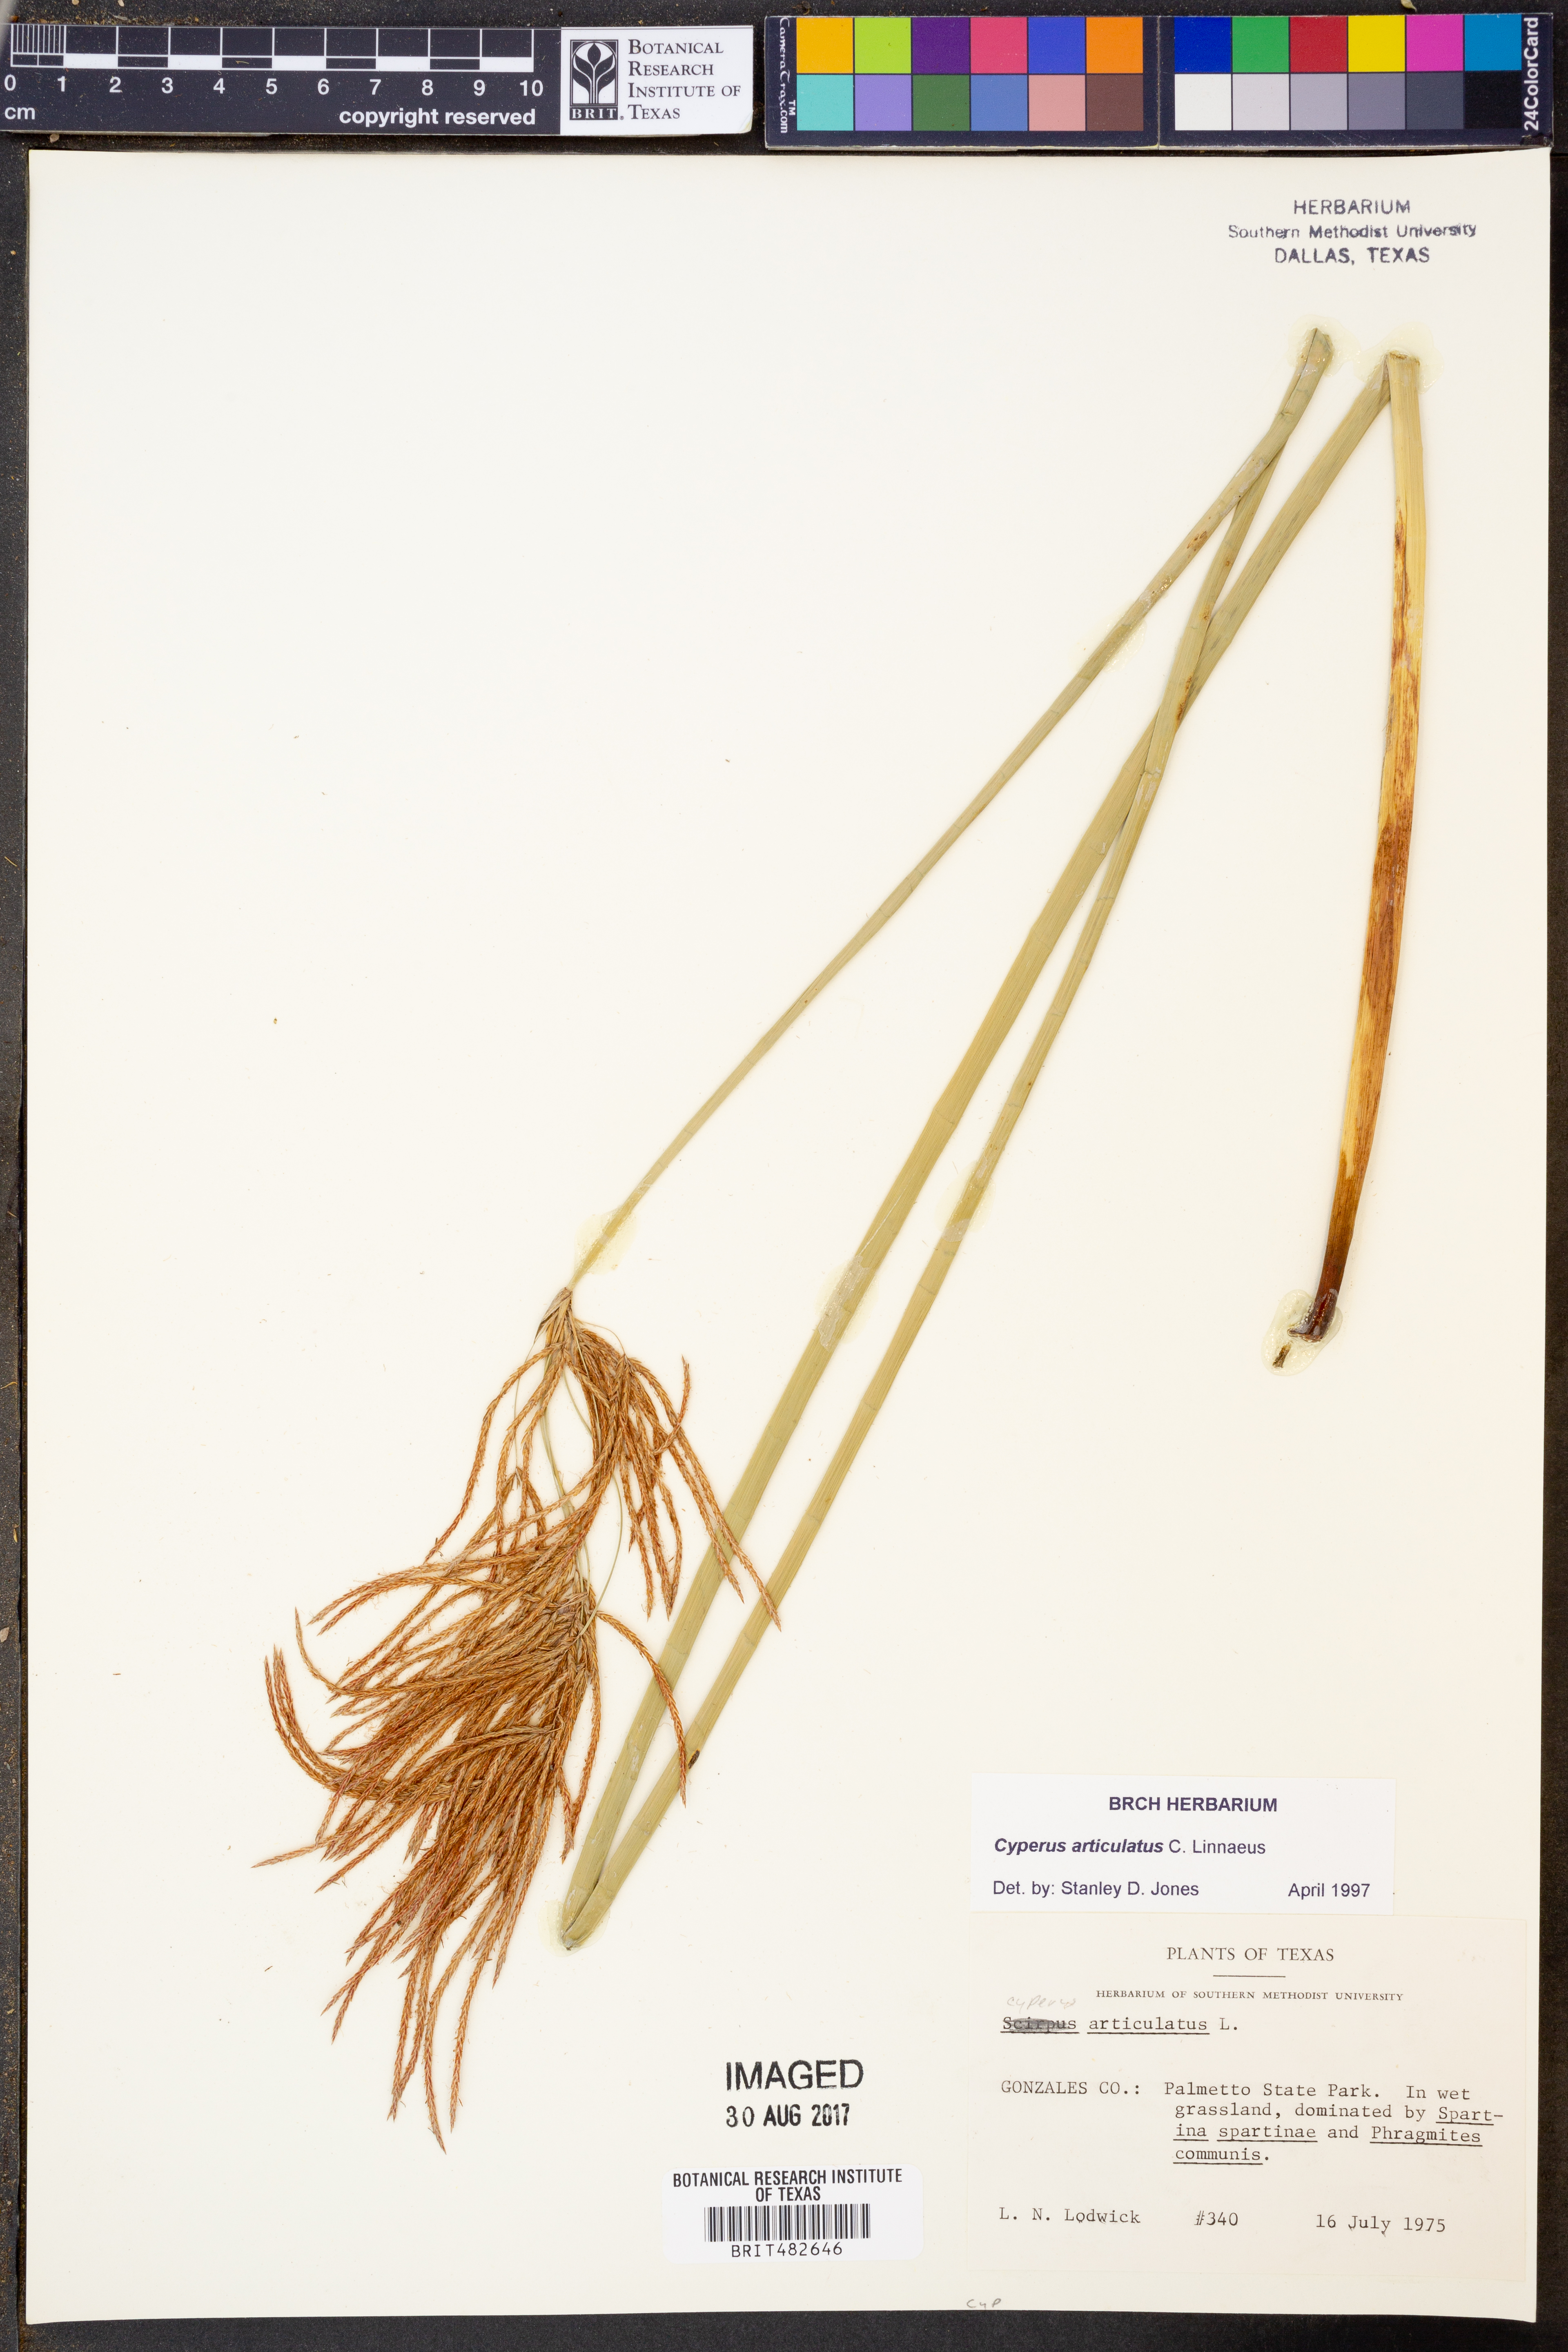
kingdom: Plantae
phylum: Tracheophyta
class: Liliopsida
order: Poales
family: Cyperaceae
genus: Cyperus
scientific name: Cyperus articulatus
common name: Jointed flatsedge
